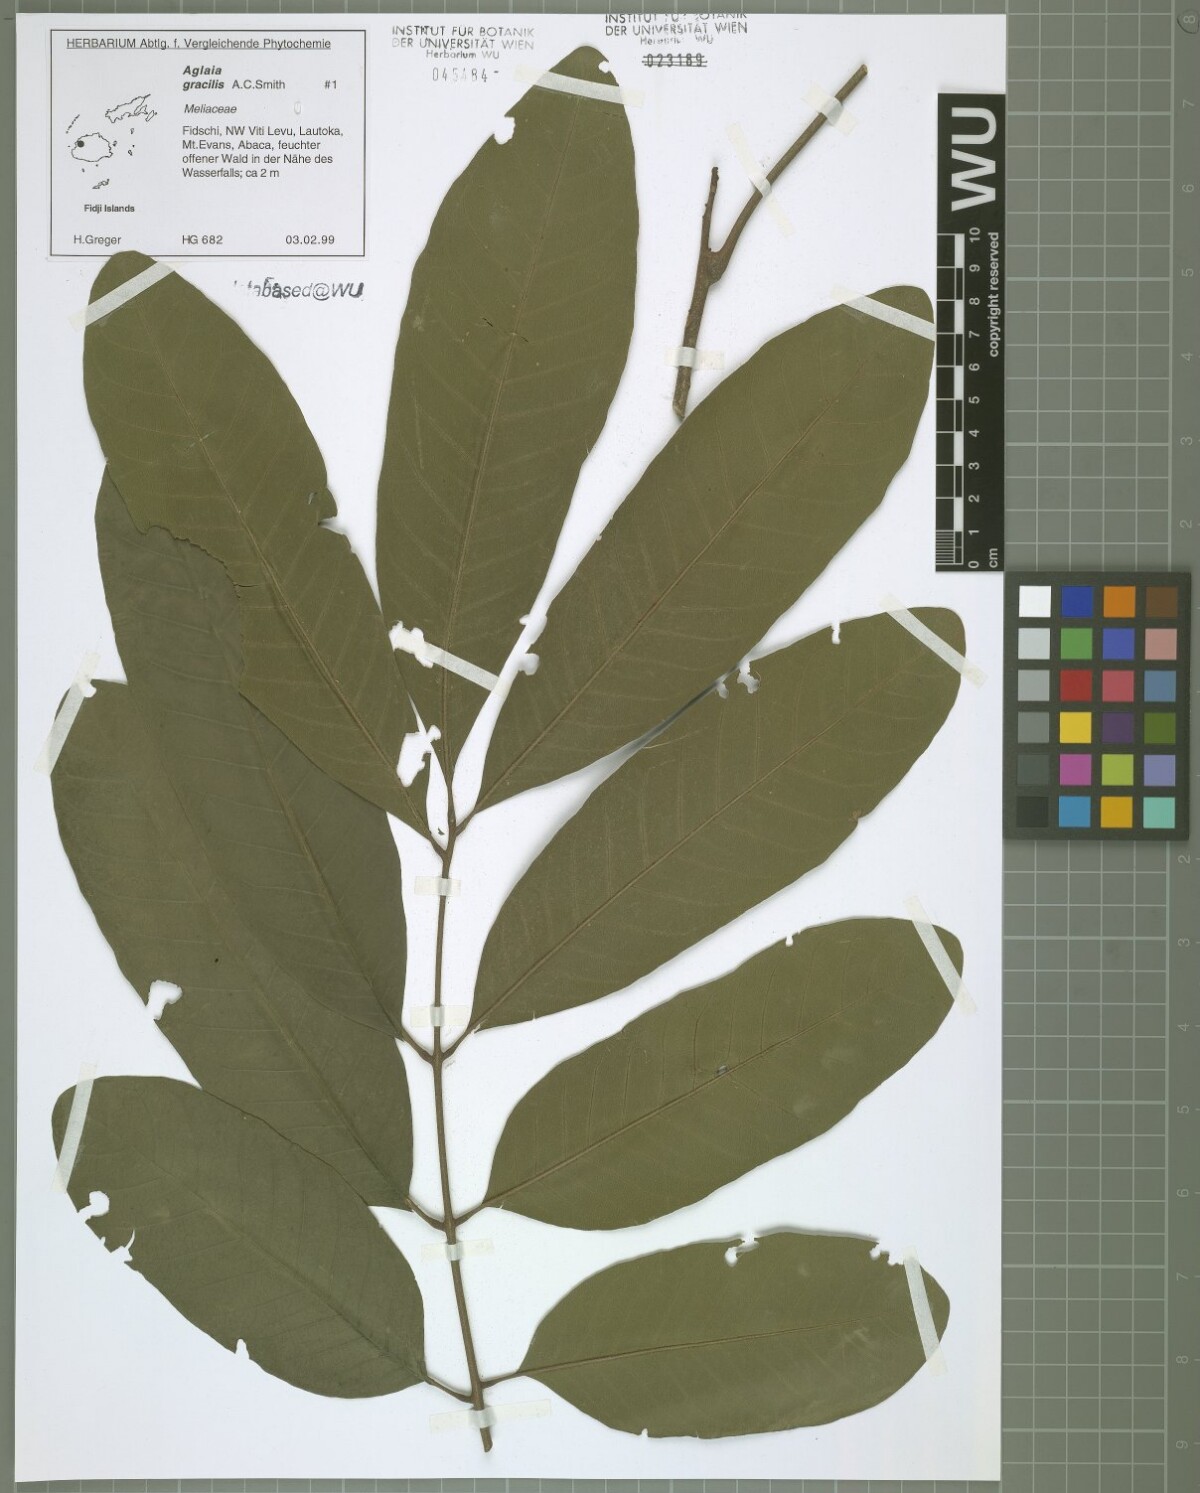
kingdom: Plantae
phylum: Tracheophyta
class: Magnoliopsida
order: Sapindales
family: Meliaceae
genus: Aglaia
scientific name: Aglaia gracilis
